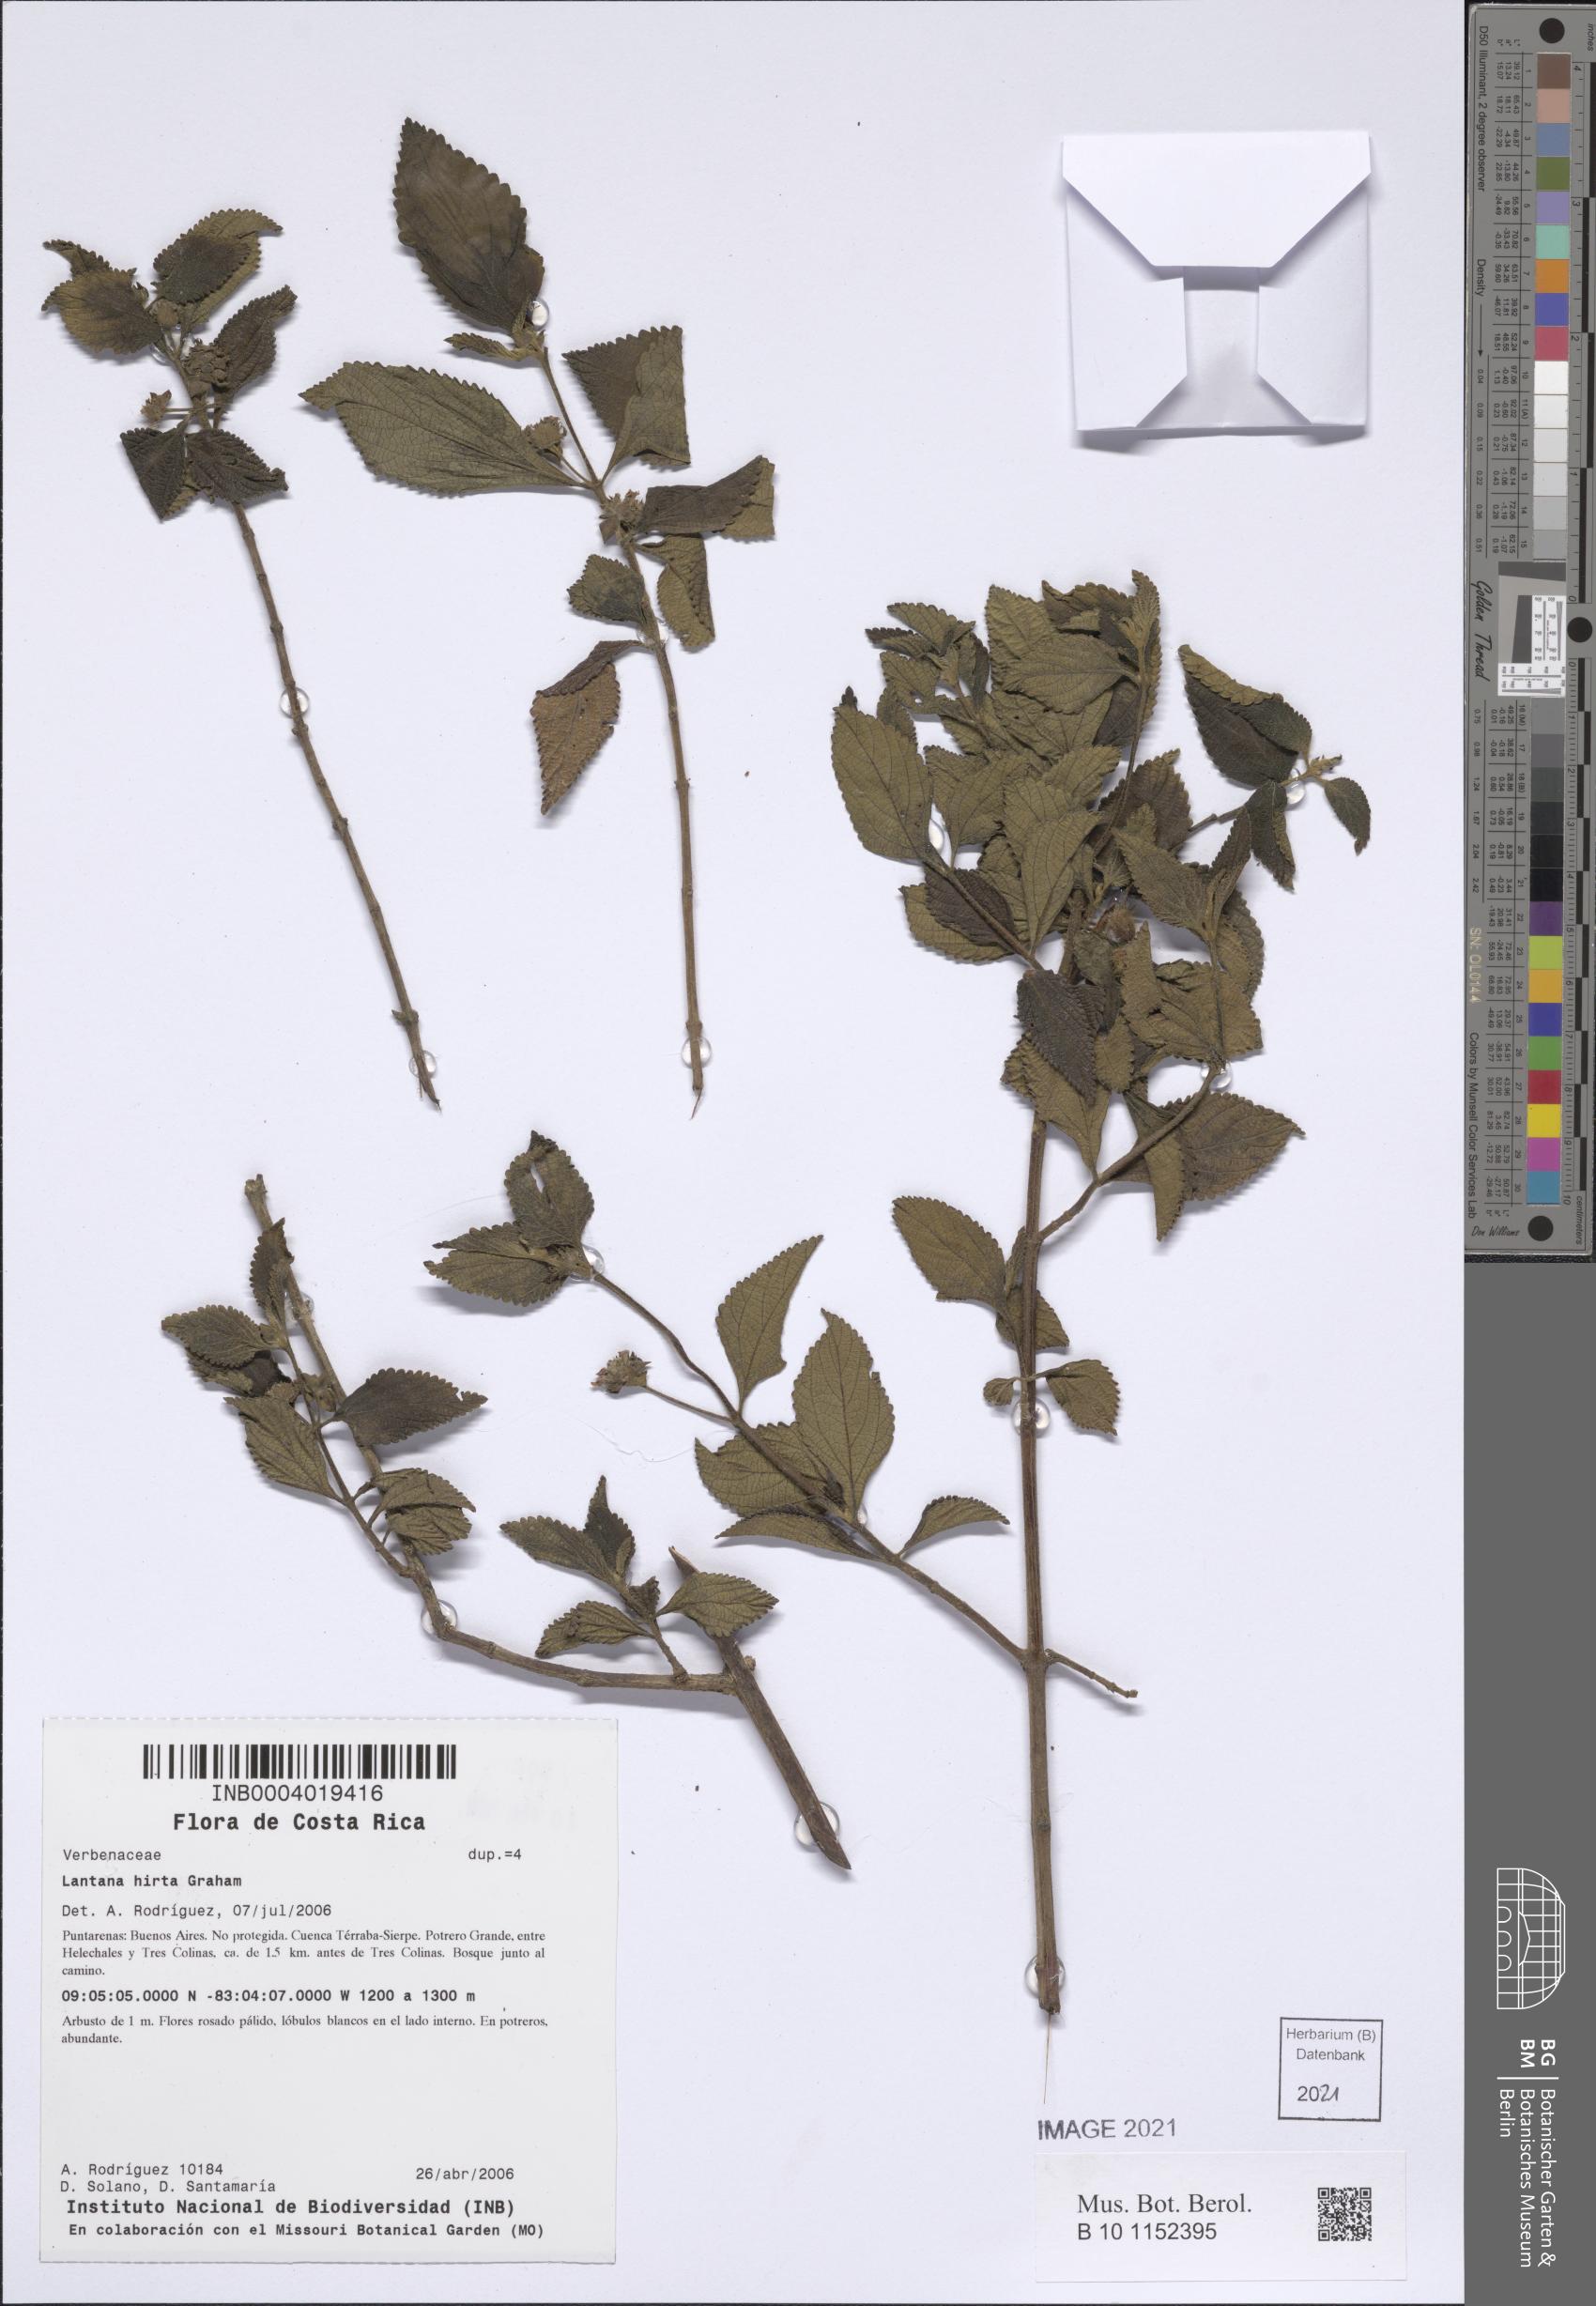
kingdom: Plantae
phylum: Tracheophyta
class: Magnoliopsida
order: Lamiales
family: Verbenaceae
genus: Lantana
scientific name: Lantana hirta
